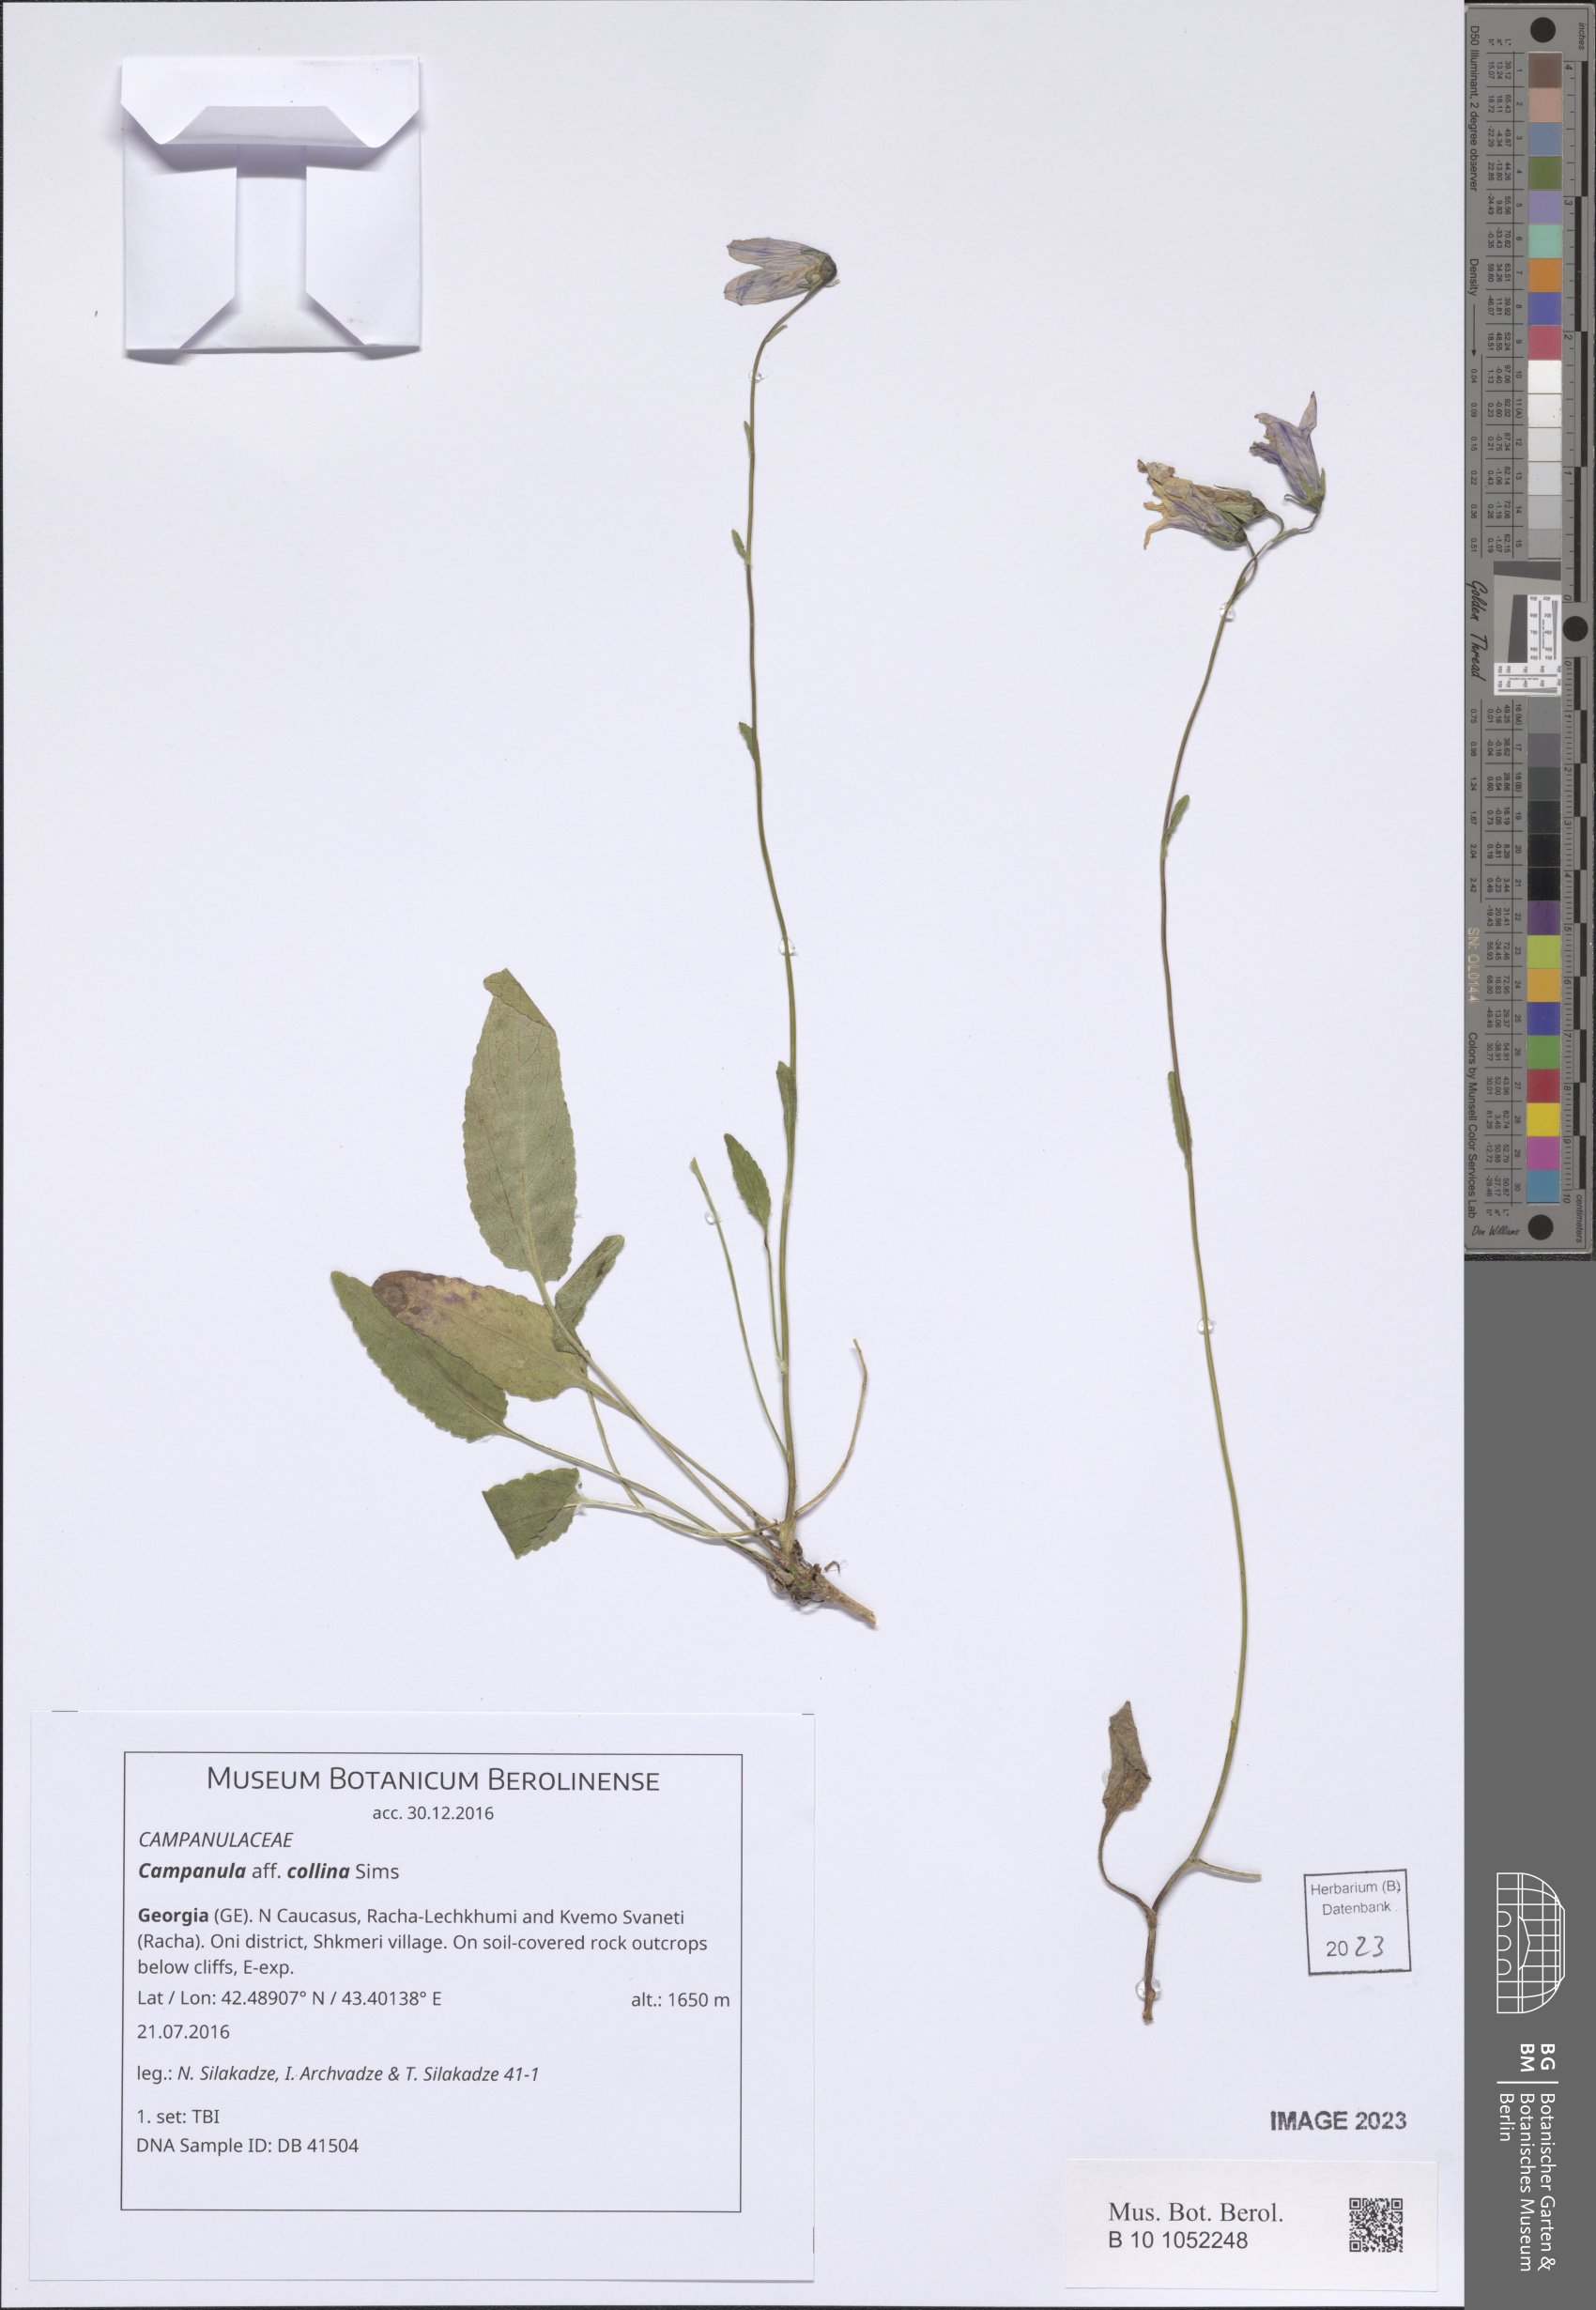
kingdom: Plantae
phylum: Tracheophyta
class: Magnoliopsida
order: Asterales
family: Campanulaceae
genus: Campanula
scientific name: Campanula collina
